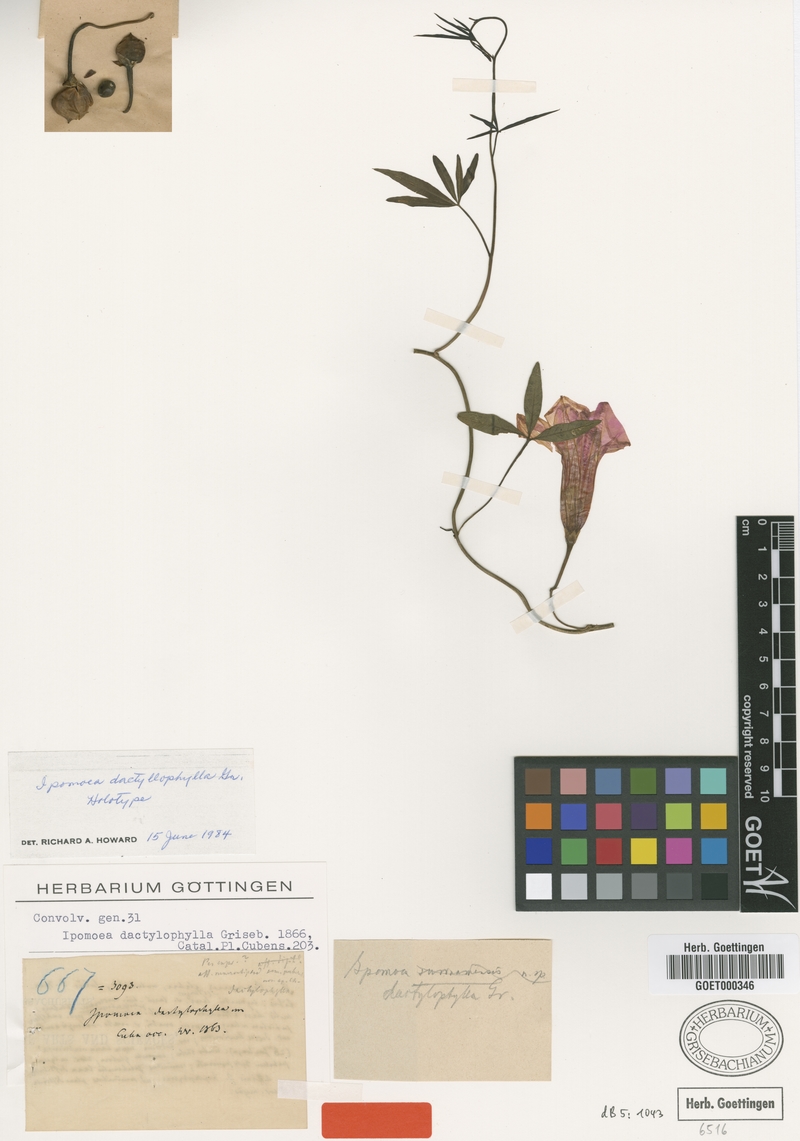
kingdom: Plantae
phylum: Tracheophyta
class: Magnoliopsida
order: Solanales
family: Convolvulaceae
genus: Ipomoea
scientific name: Ipomoea subrevoluta
